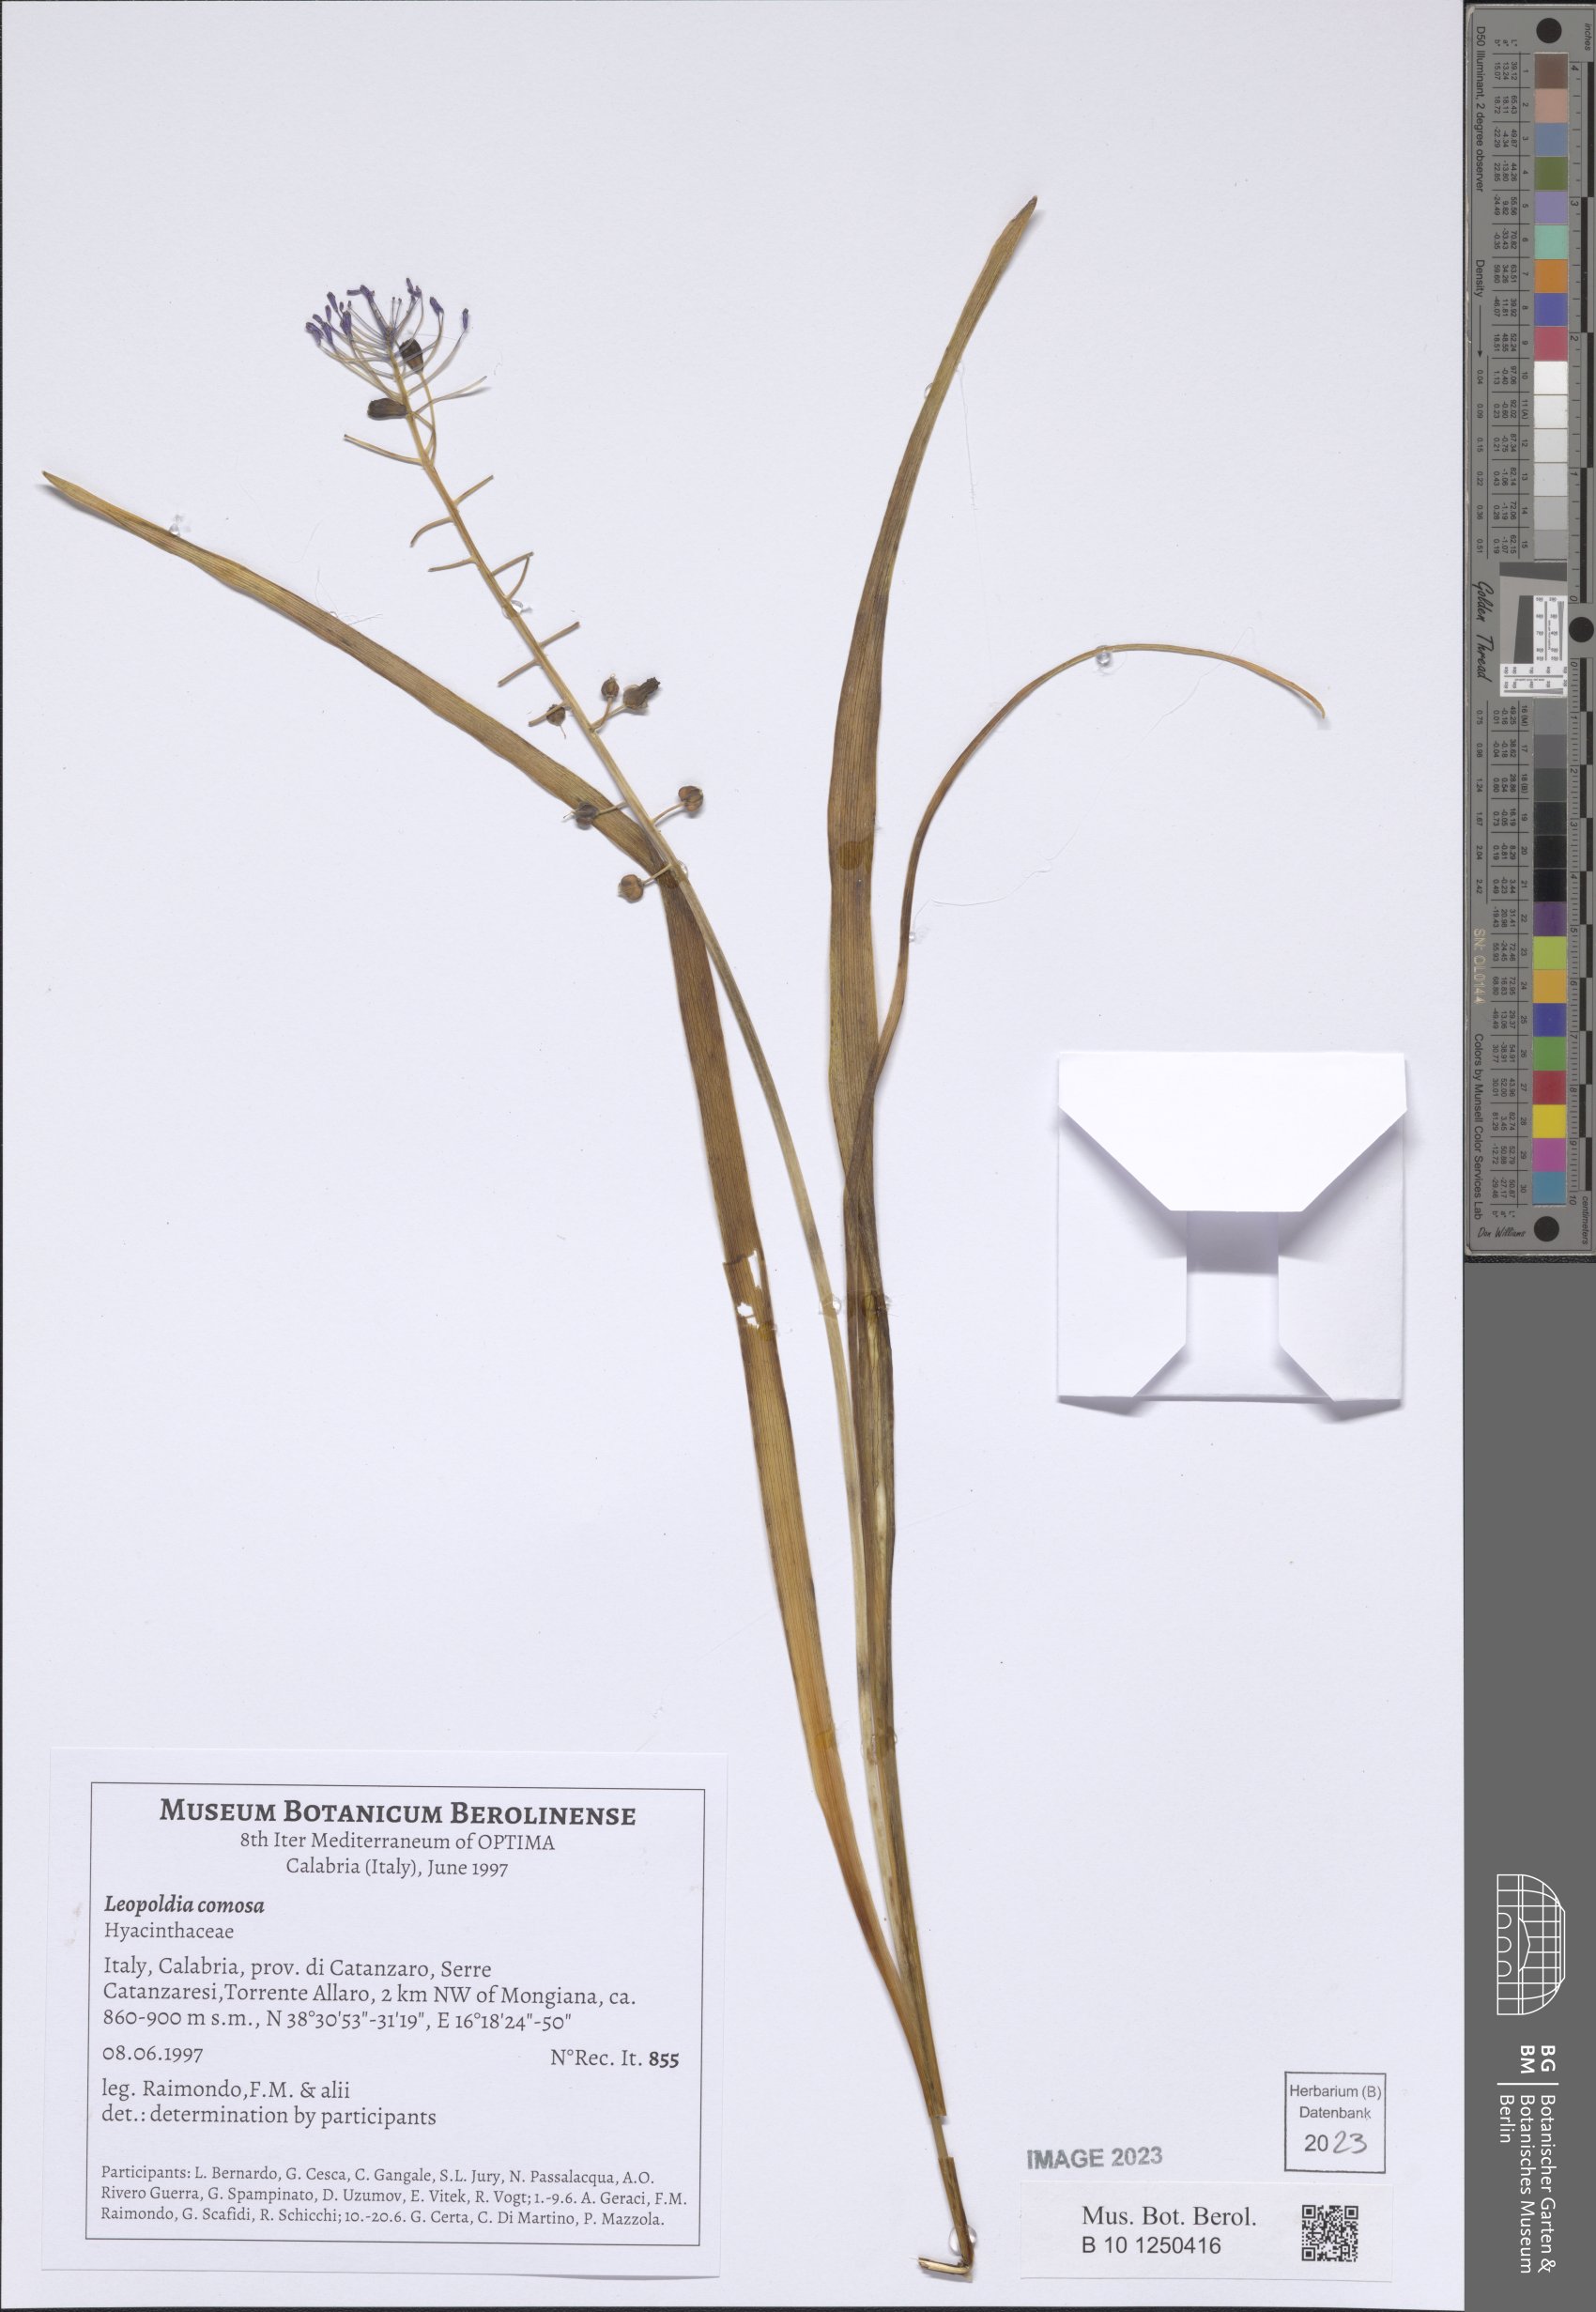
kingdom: Plantae
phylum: Tracheophyta
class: Liliopsida
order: Asparagales
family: Asparagaceae
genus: Muscari
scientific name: Muscari comosum
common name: Tassel hyacinth
